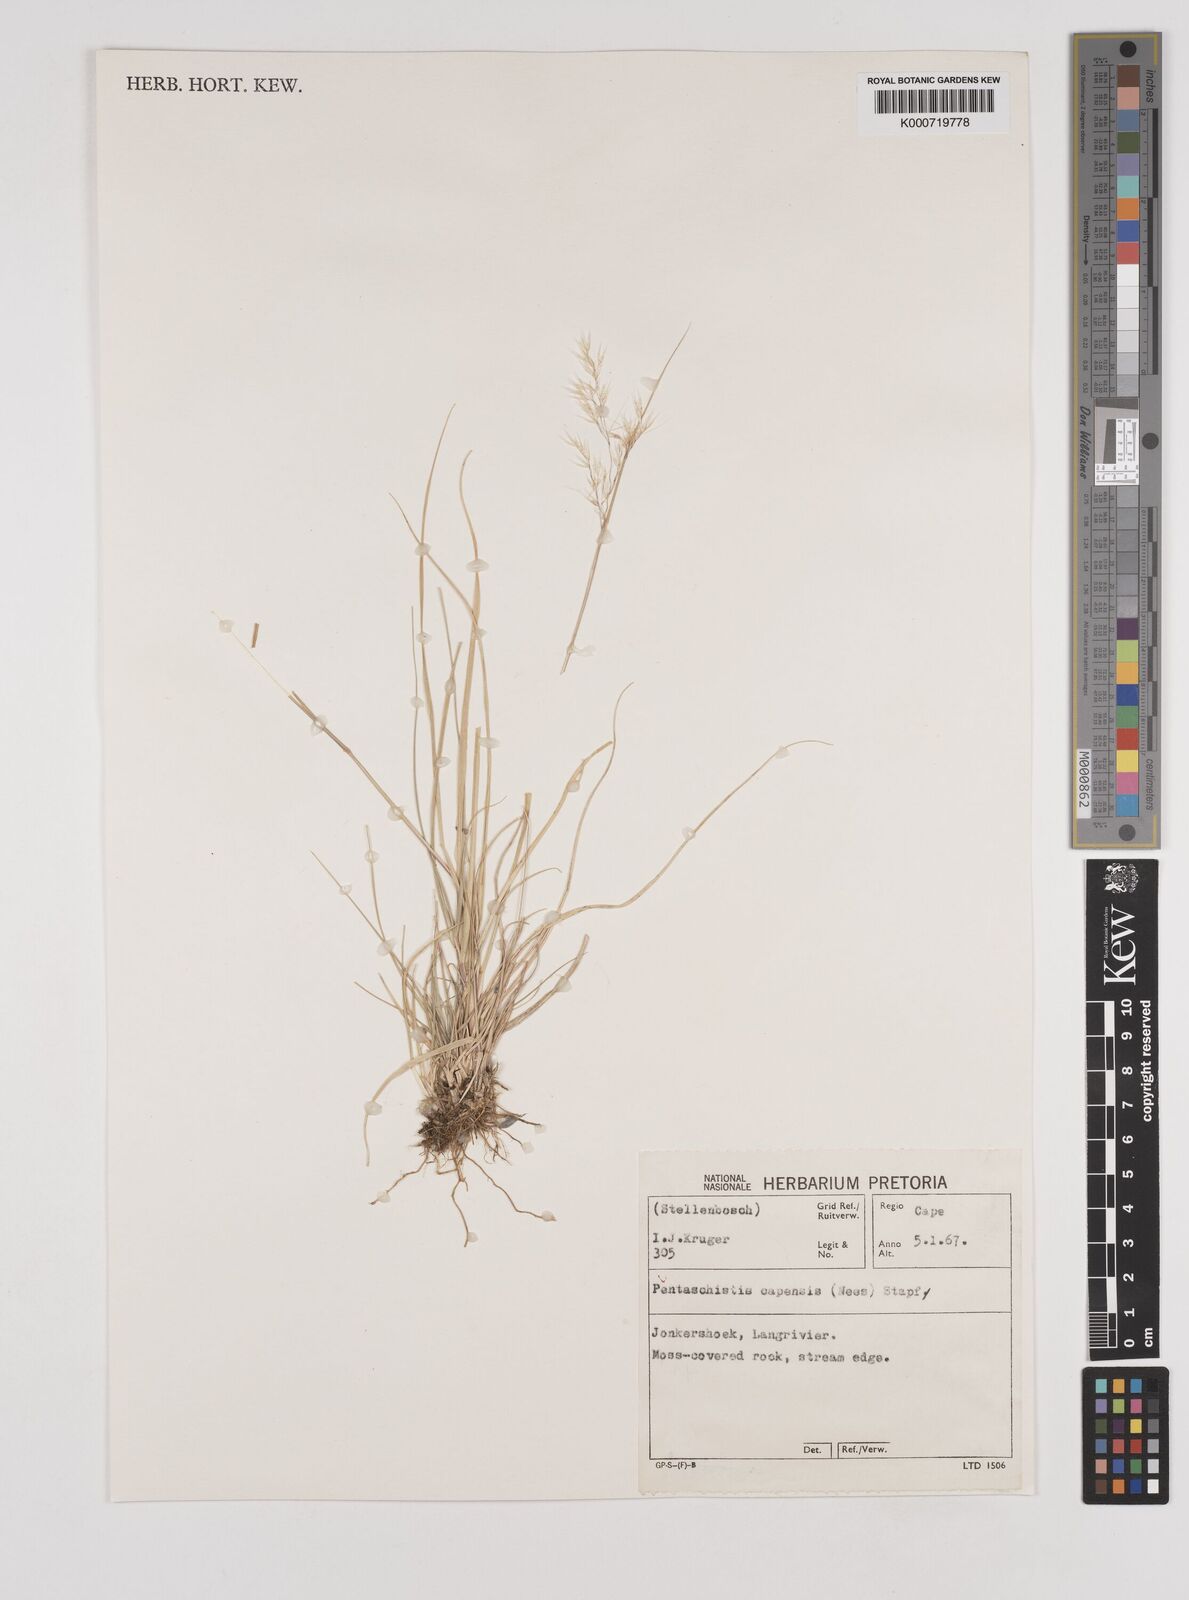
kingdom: Plantae
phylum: Tracheophyta
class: Liliopsida
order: Poales
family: Poaceae
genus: Pentameris
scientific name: Pentameris capensis
